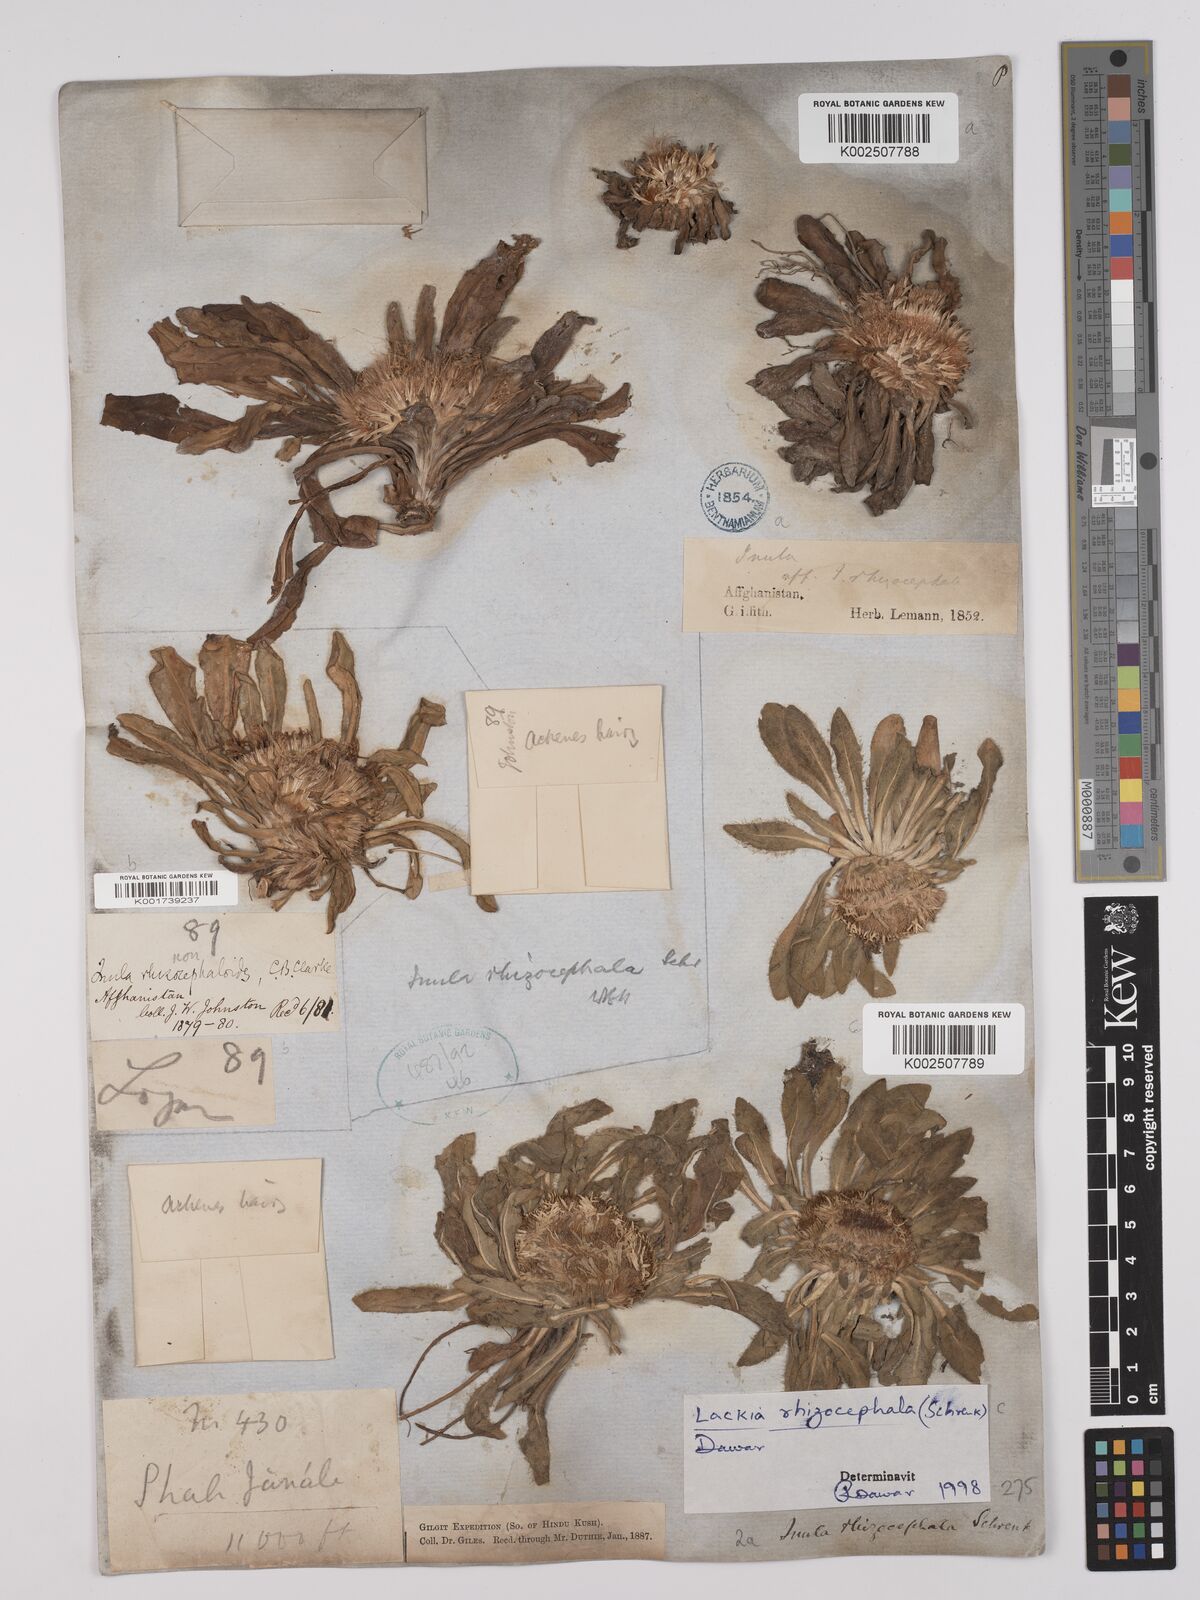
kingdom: Plantae
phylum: Tracheophyta
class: Magnoliopsida
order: Asterales
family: Asteraceae
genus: Inula
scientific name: Inula rhizocephala
